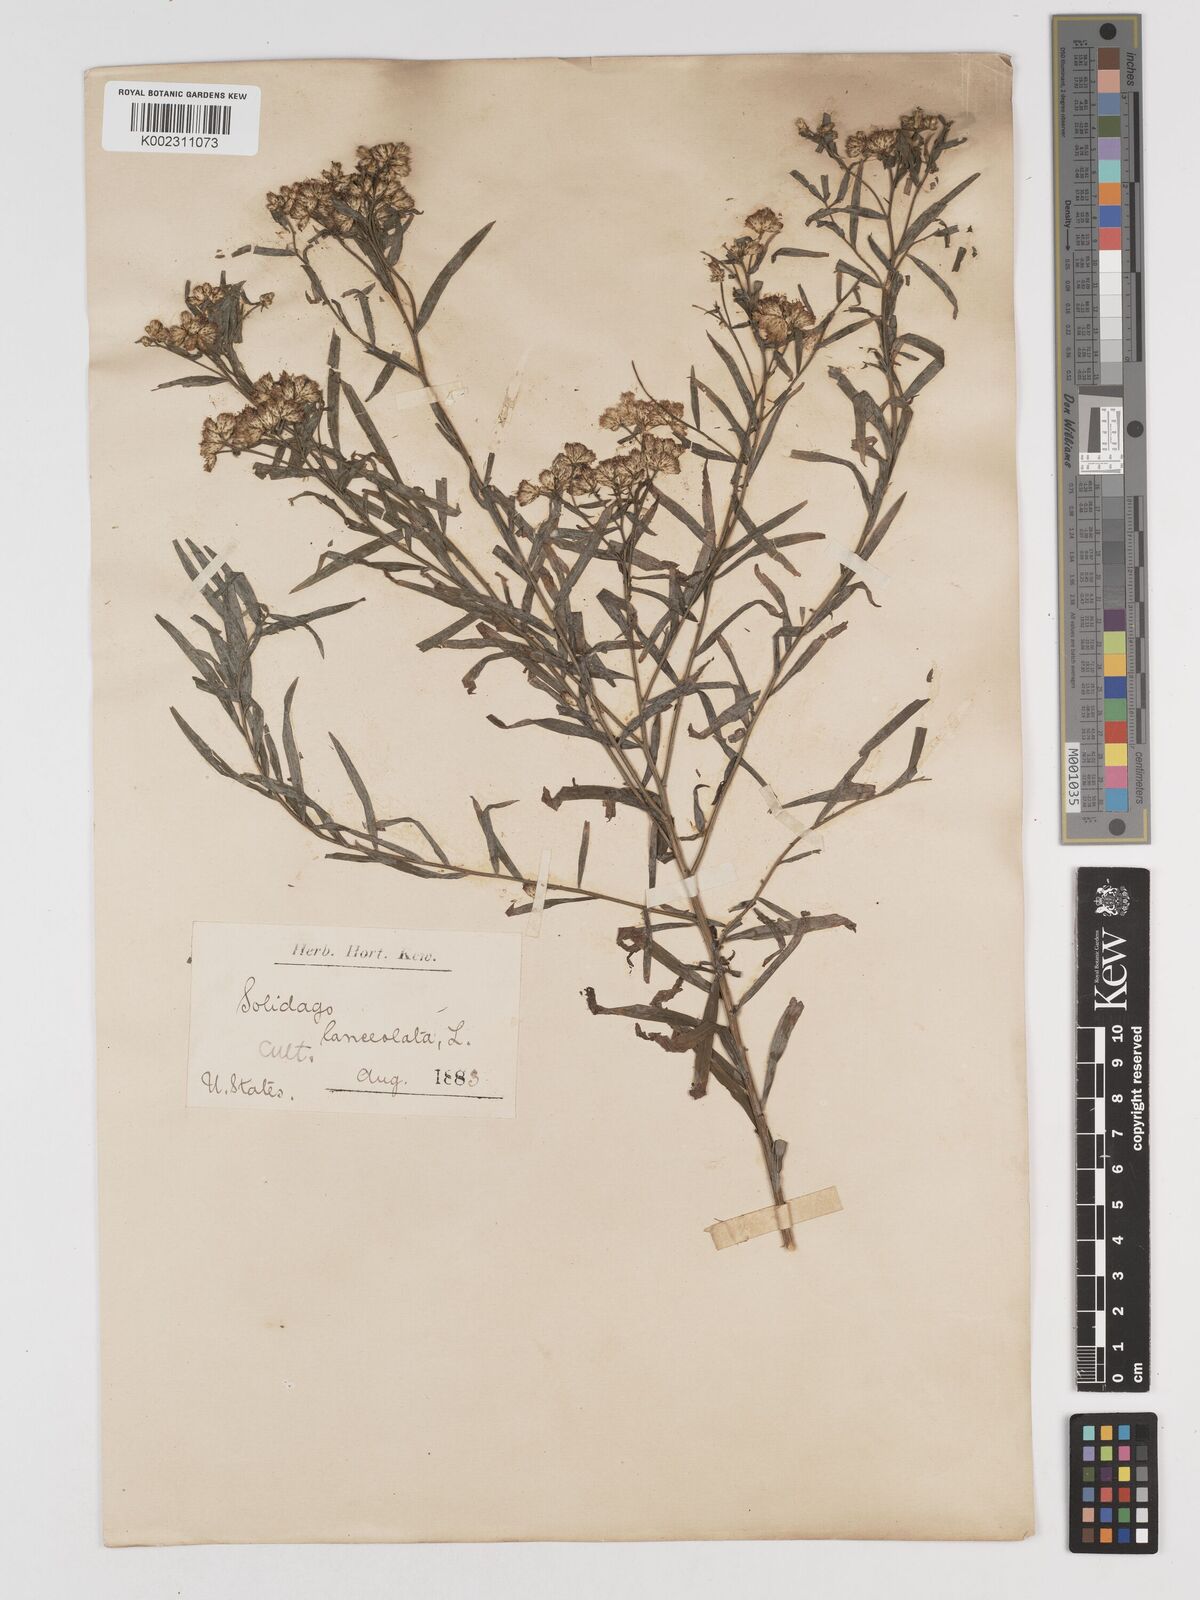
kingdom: Plantae
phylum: Tracheophyta
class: Magnoliopsida
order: Asterales
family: Asteraceae
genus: Euthamia
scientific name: Euthamia lanceolata
